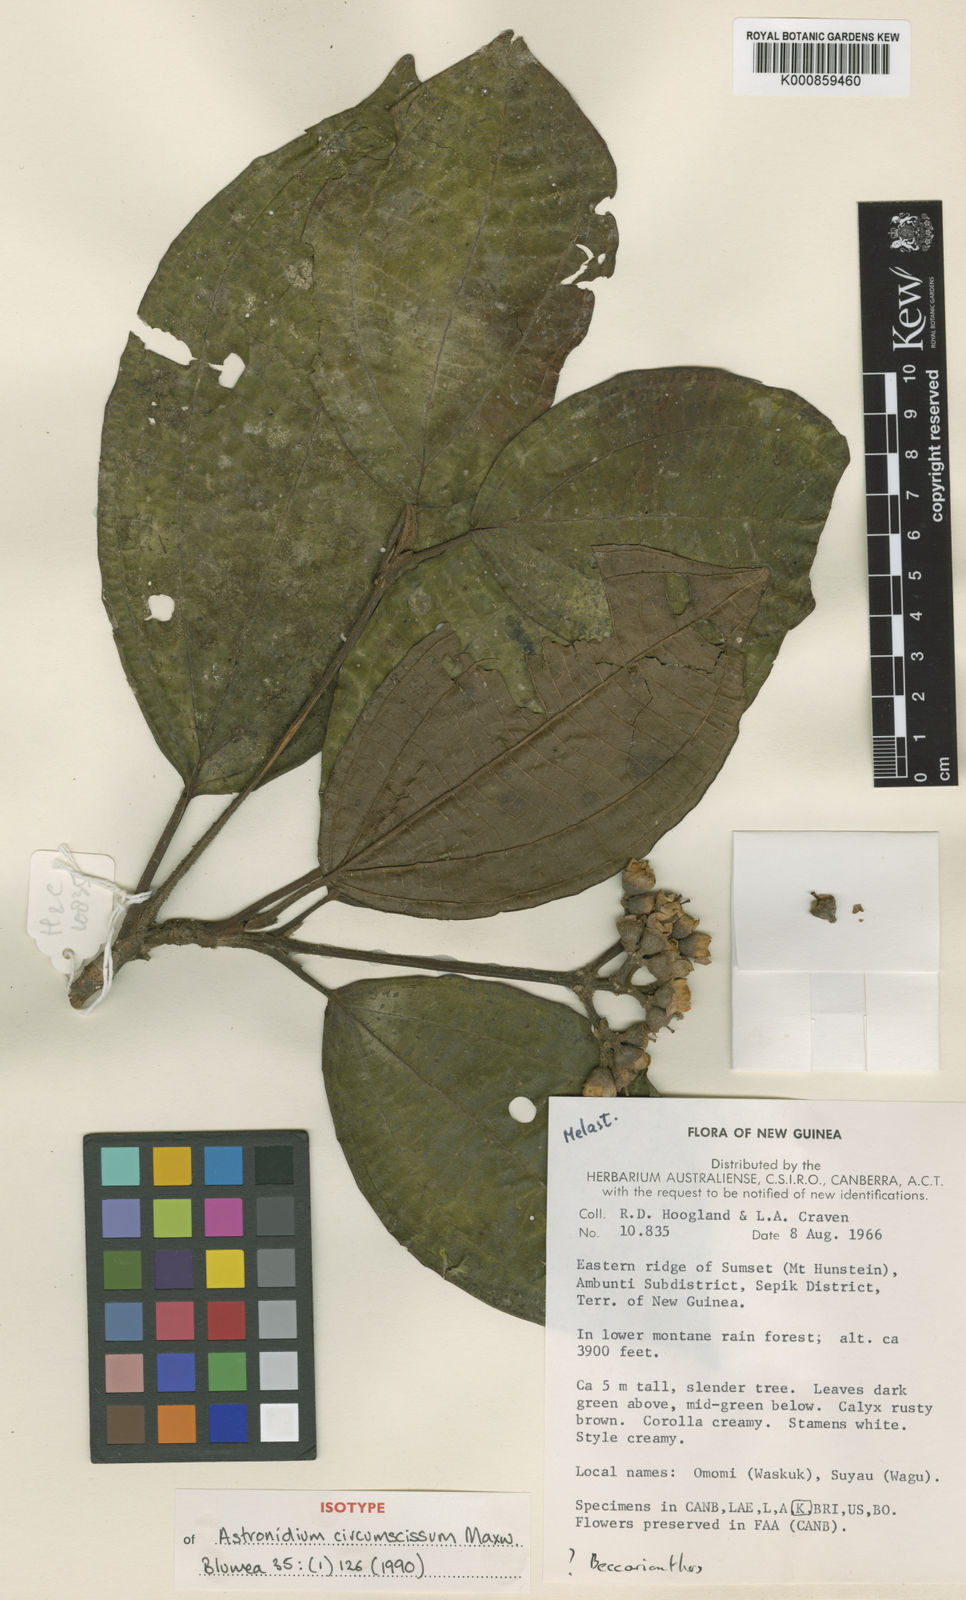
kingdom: Plantae
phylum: Tracheophyta
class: Magnoliopsida
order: Myrtales
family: Melastomataceae
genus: Astronidium
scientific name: Astronidium circumscissum
